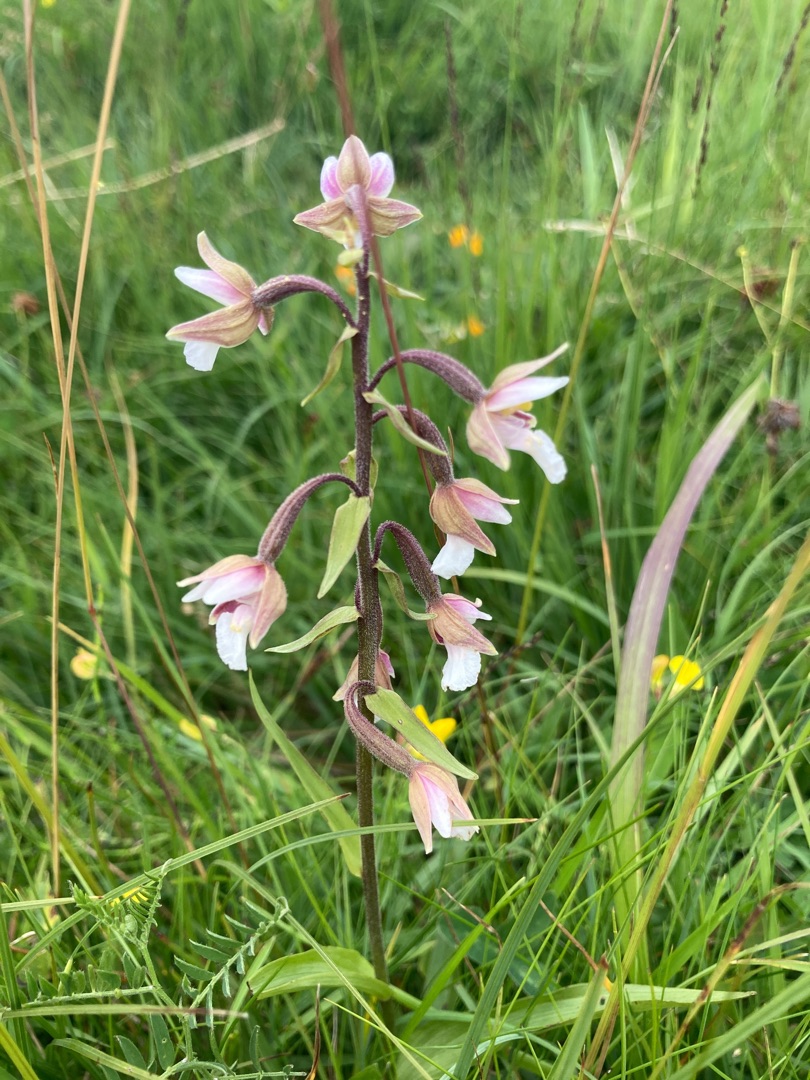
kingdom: Plantae
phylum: Tracheophyta
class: Liliopsida
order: Asparagales
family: Orchidaceae
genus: Epipactis
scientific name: Epipactis palustris
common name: Sump-hullæbe
